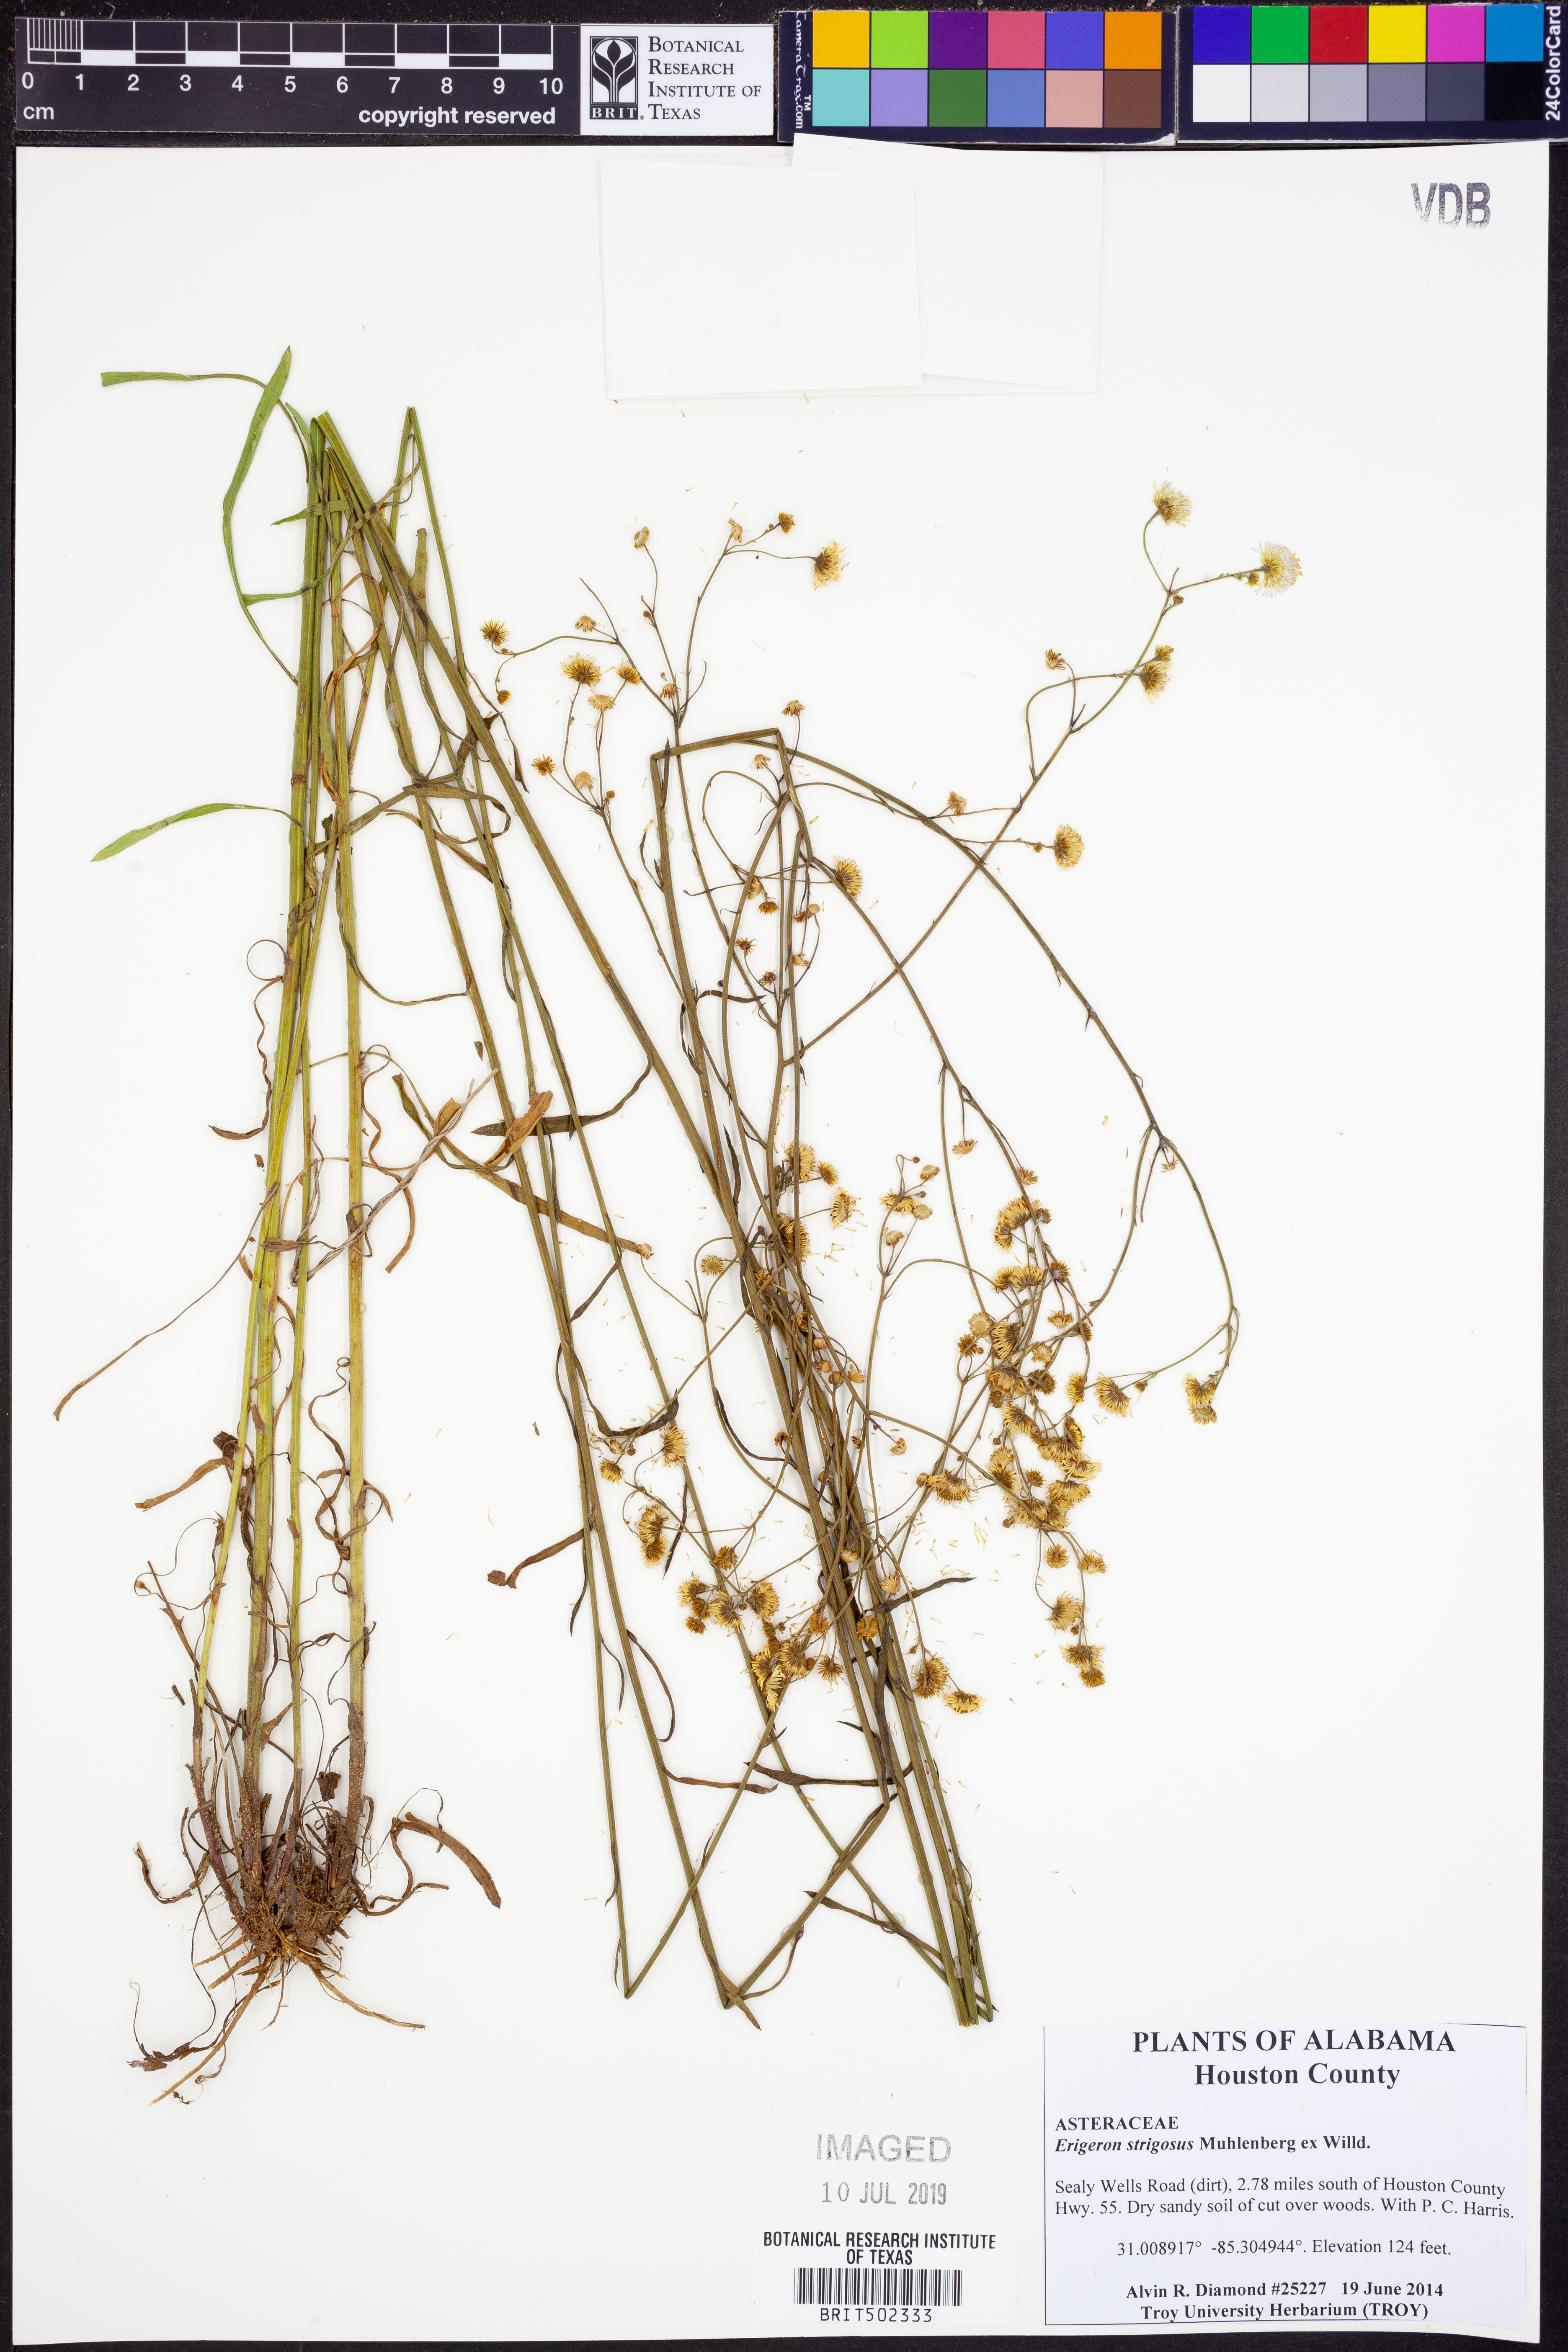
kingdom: Plantae
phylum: Tracheophyta
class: Magnoliopsida
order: Asterales
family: Asteraceae
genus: Erigeron
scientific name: Erigeron strigosus
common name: Common eastern fleabane
